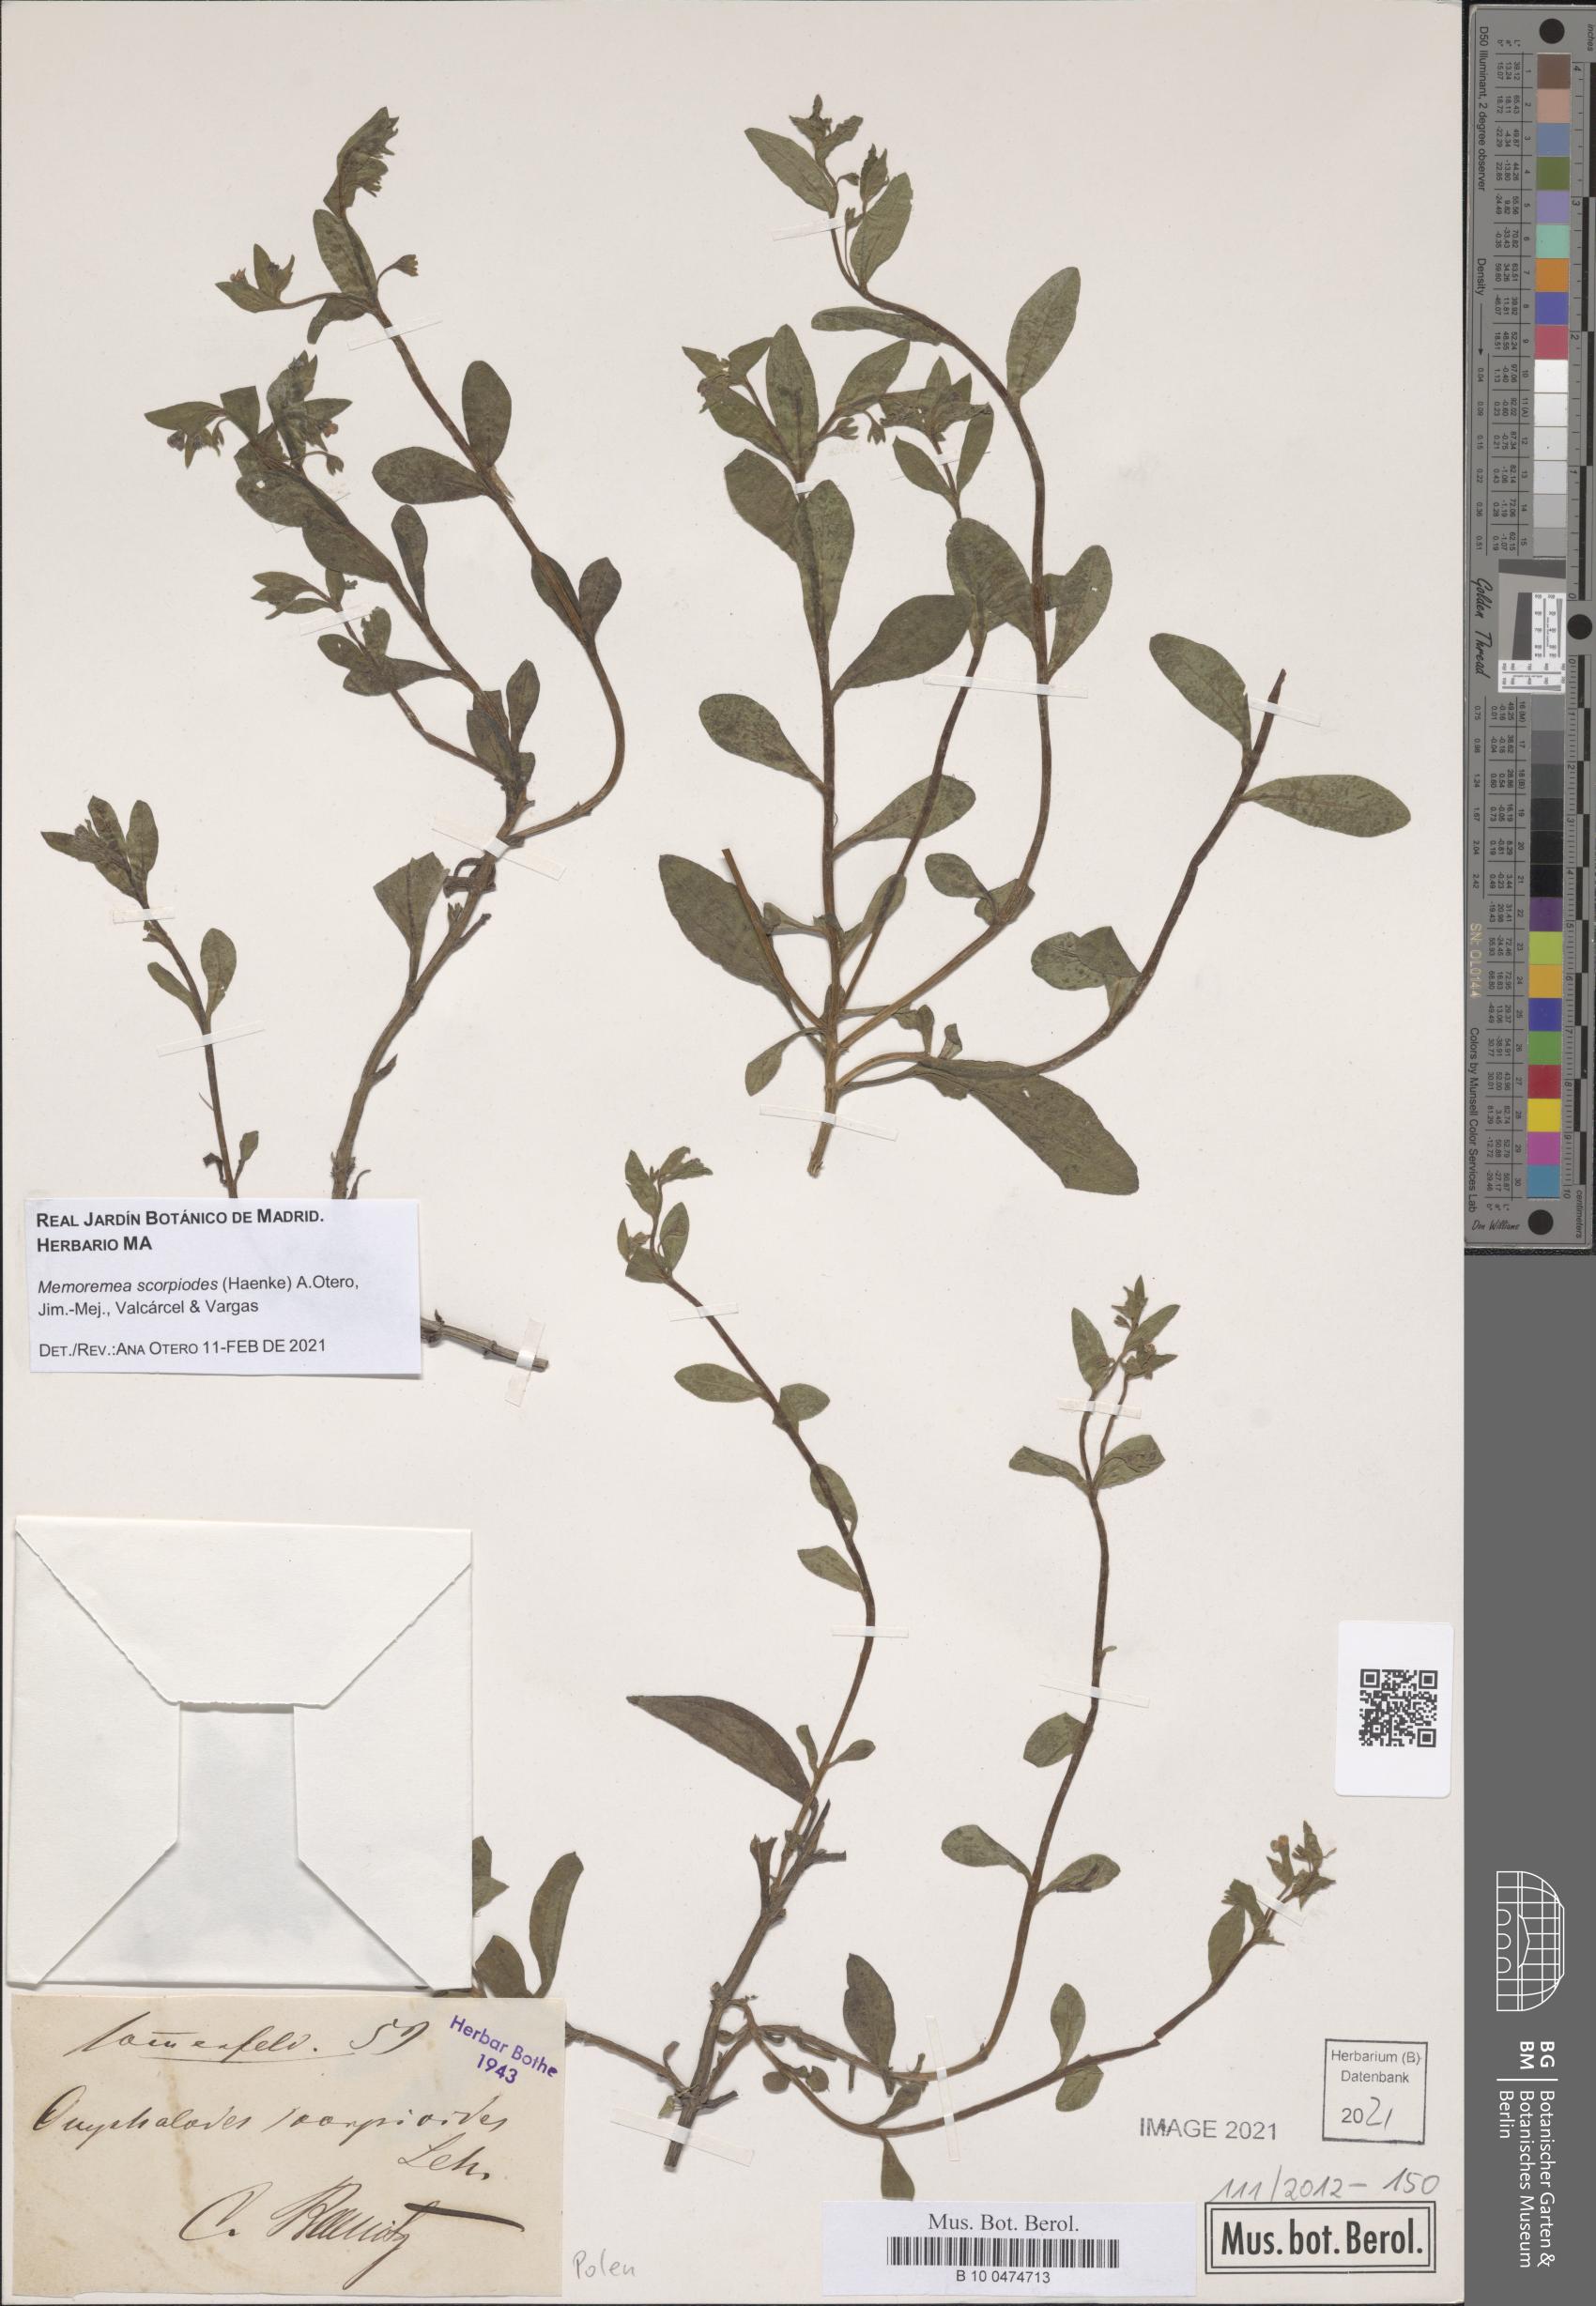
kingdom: Plantae
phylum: Tracheophyta
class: Magnoliopsida
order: Boraginales
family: Boraginaceae
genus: Memoremea
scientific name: Memoremea scorpioides
